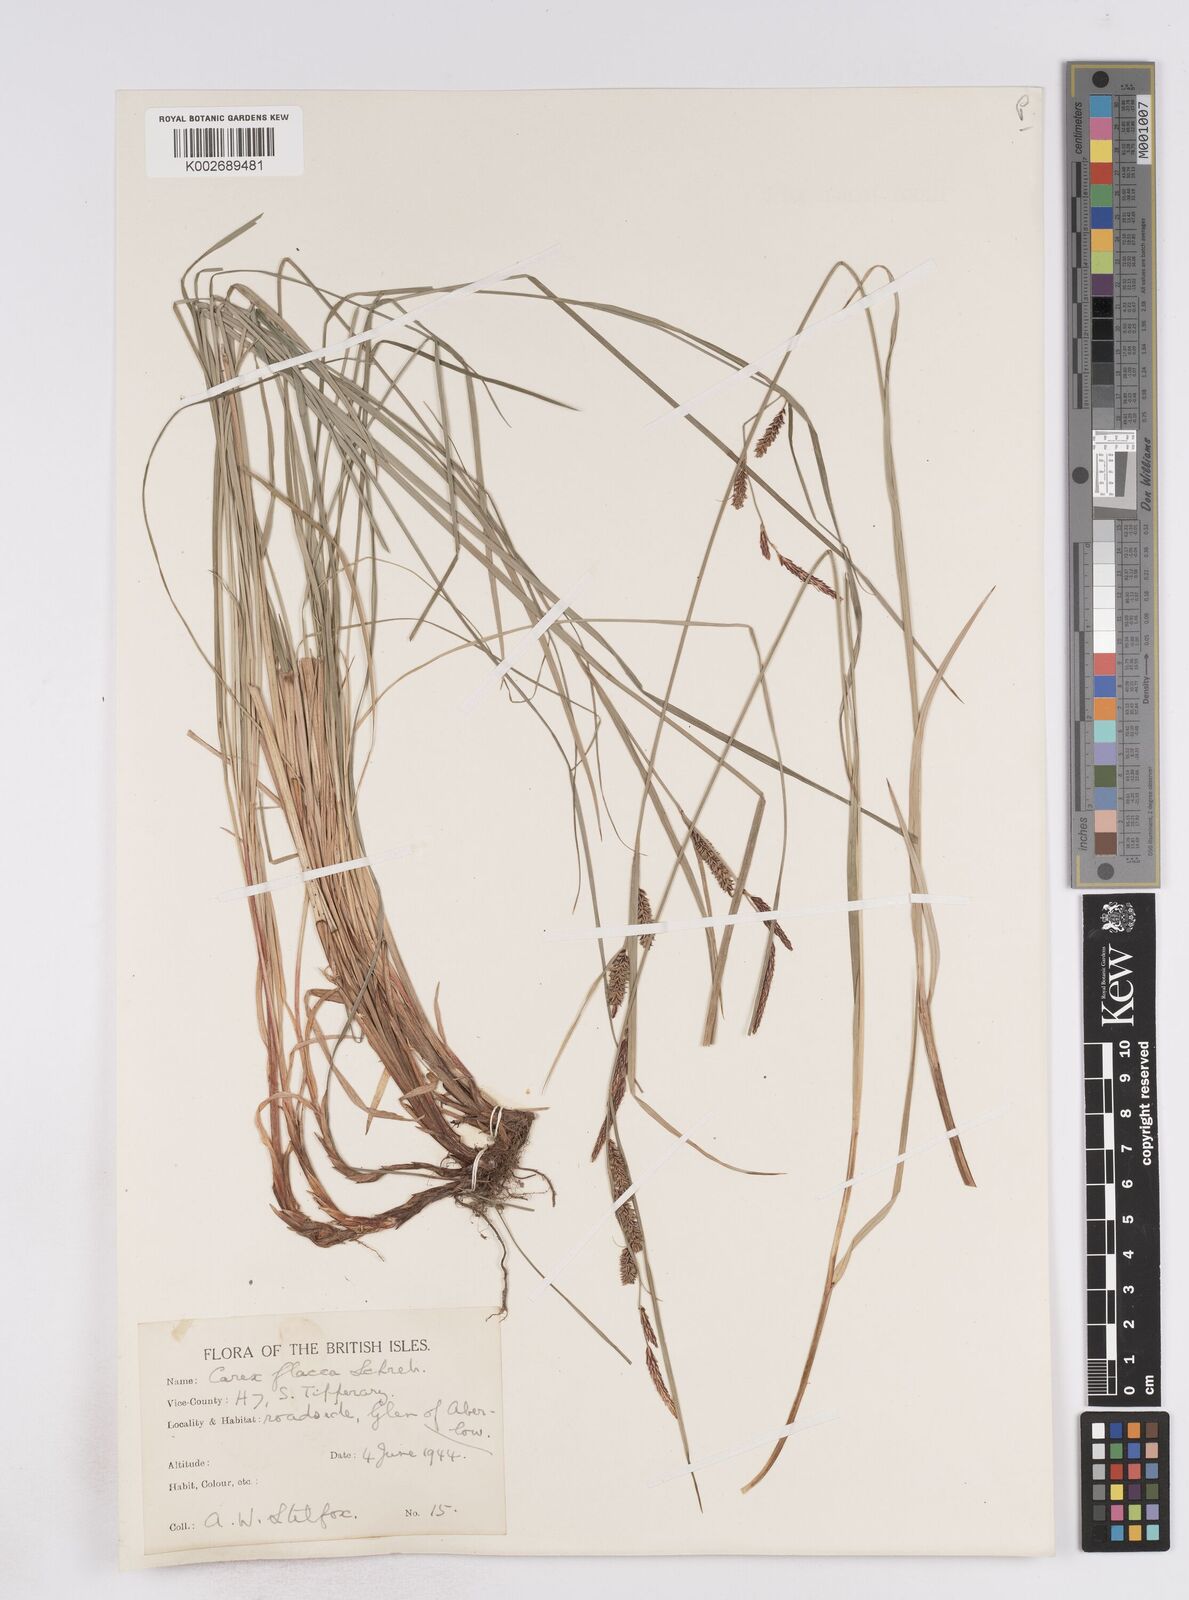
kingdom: Plantae
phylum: Tracheophyta
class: Liliopsida
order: Poales
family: Cyperaceae
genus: Carex
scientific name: Carex flacca
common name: Glaucous sedge
